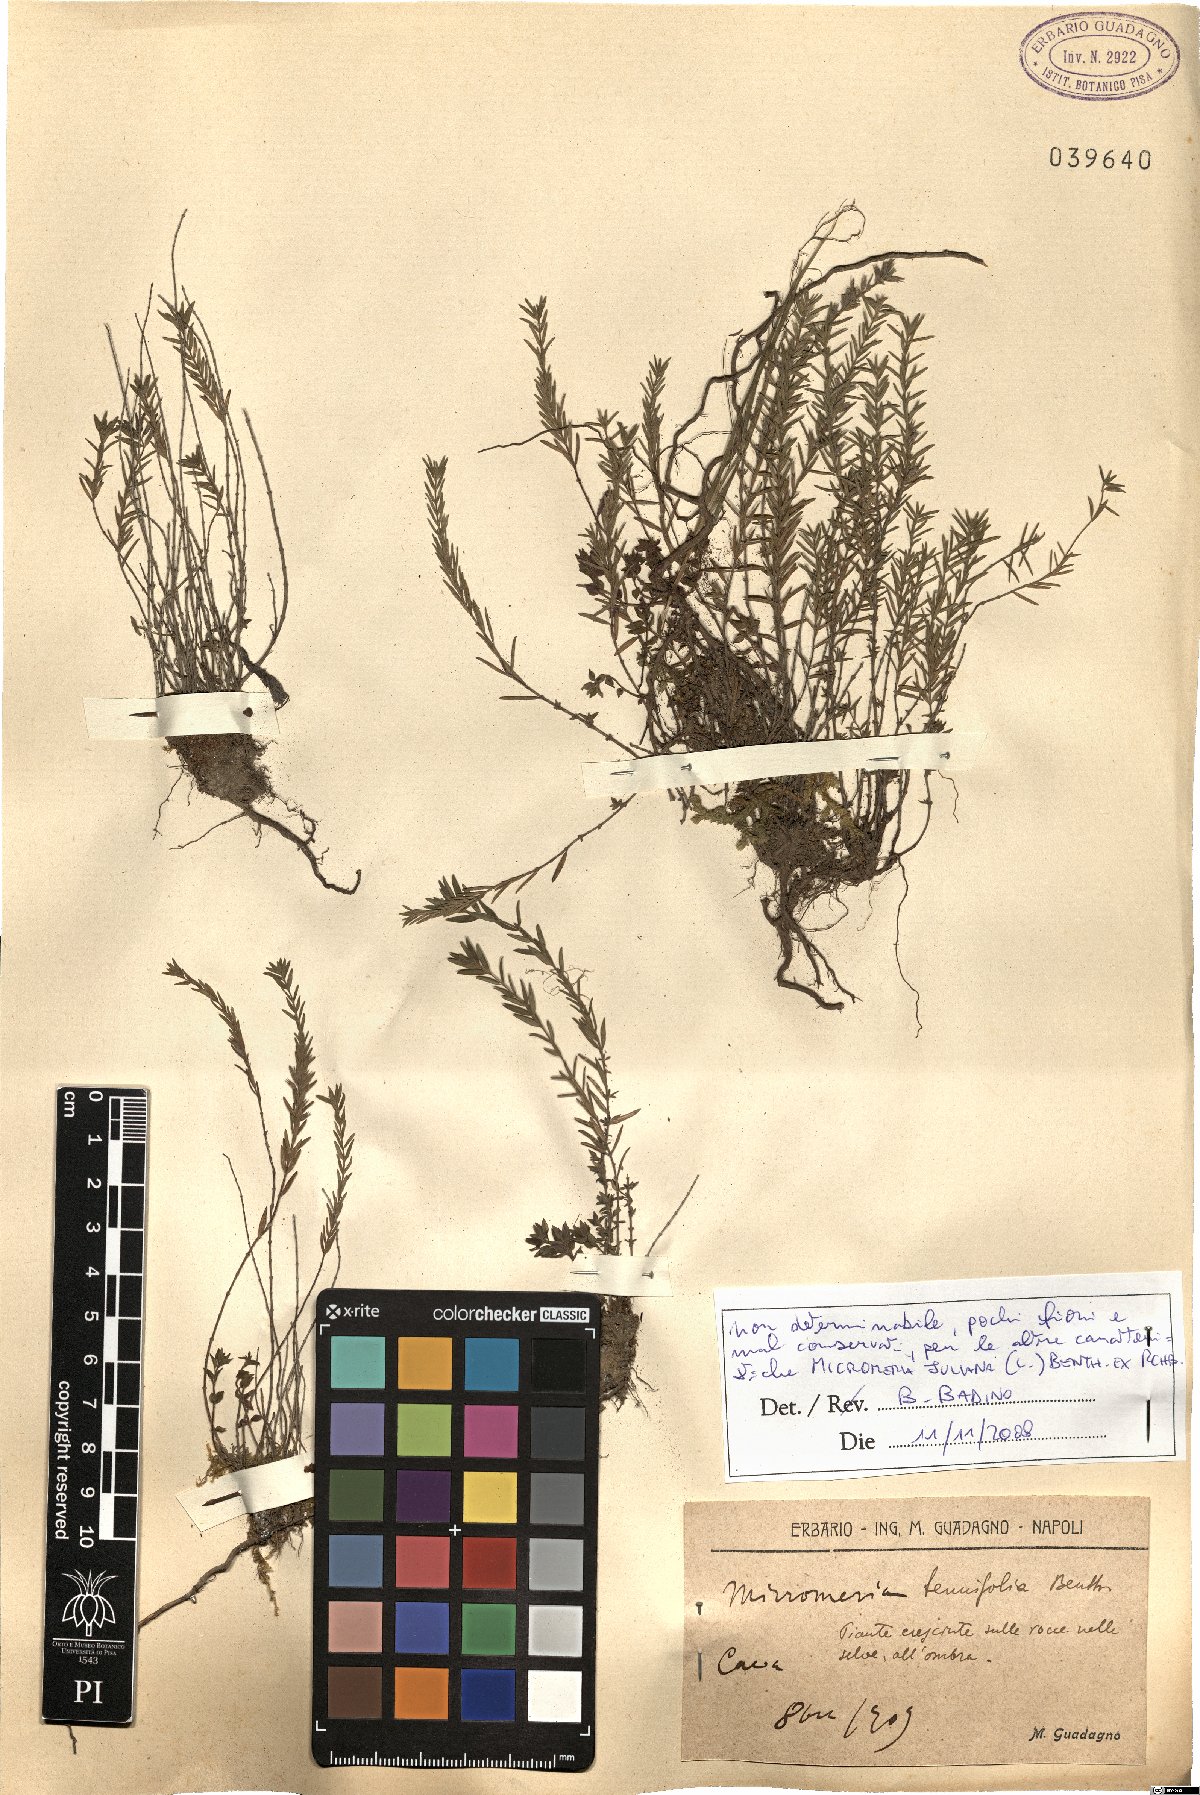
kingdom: Plantae
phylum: Tracheophyta
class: Magnoliopsida
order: Lamiales
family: Lamiaceae
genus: Micromeria
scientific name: Micromeria juliana
